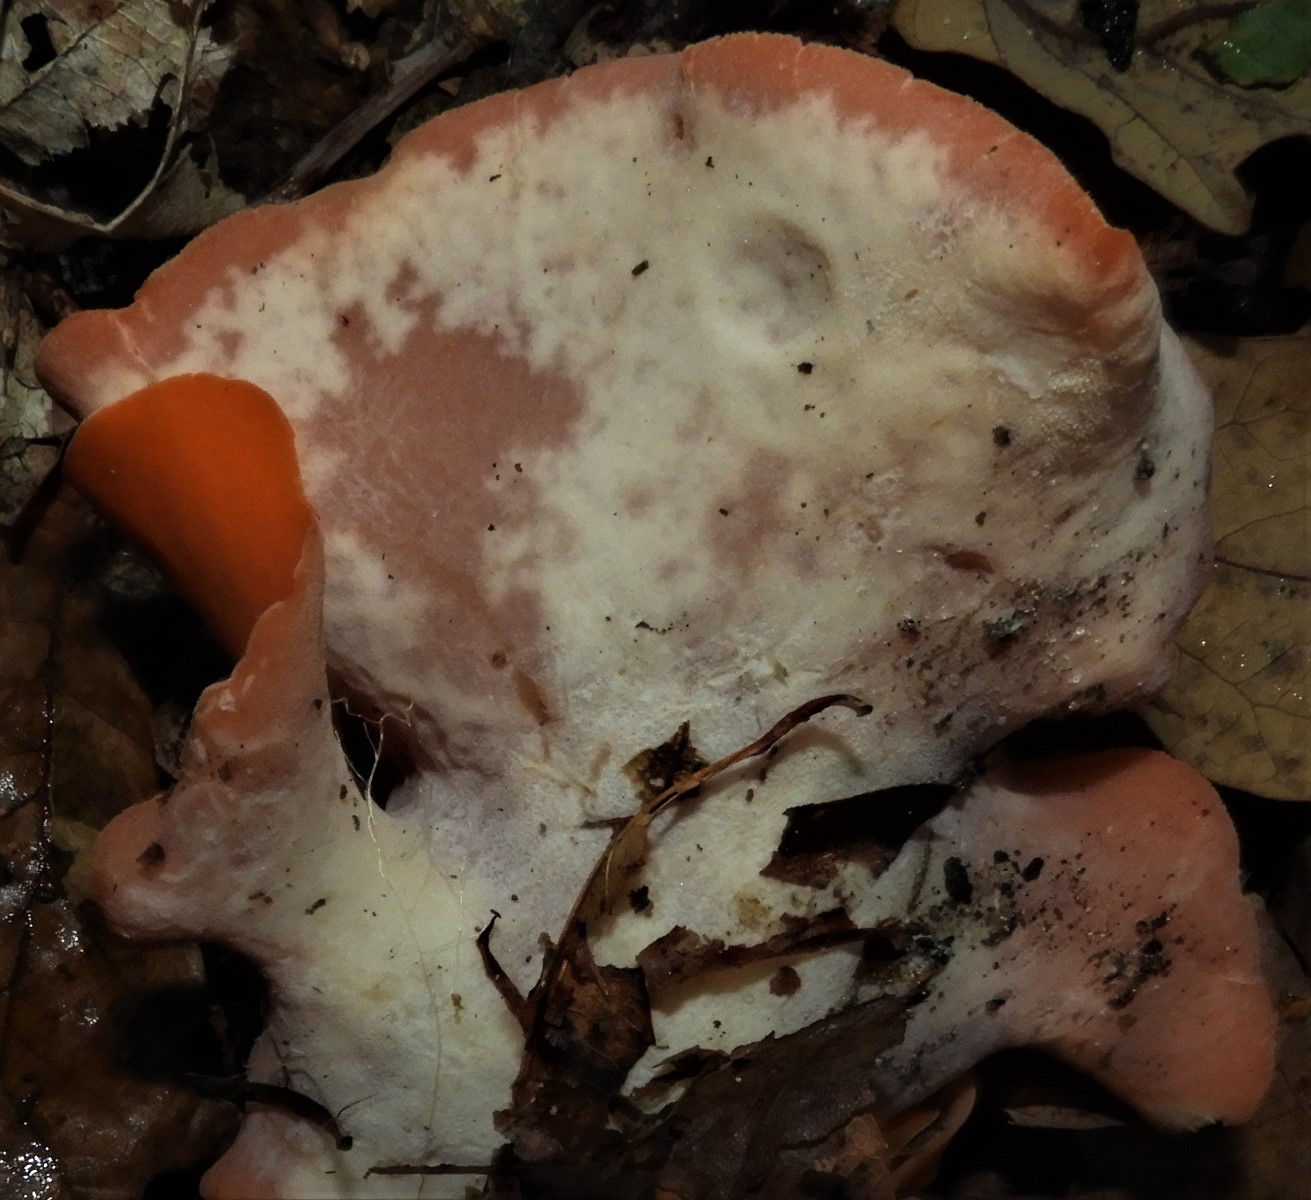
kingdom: Fungi
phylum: Ascomycota
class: Pezizomycetes
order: Pezizales
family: Pyronemataceae
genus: Aleuria
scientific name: Aleuria aurantia
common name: almindelig orangebæger
